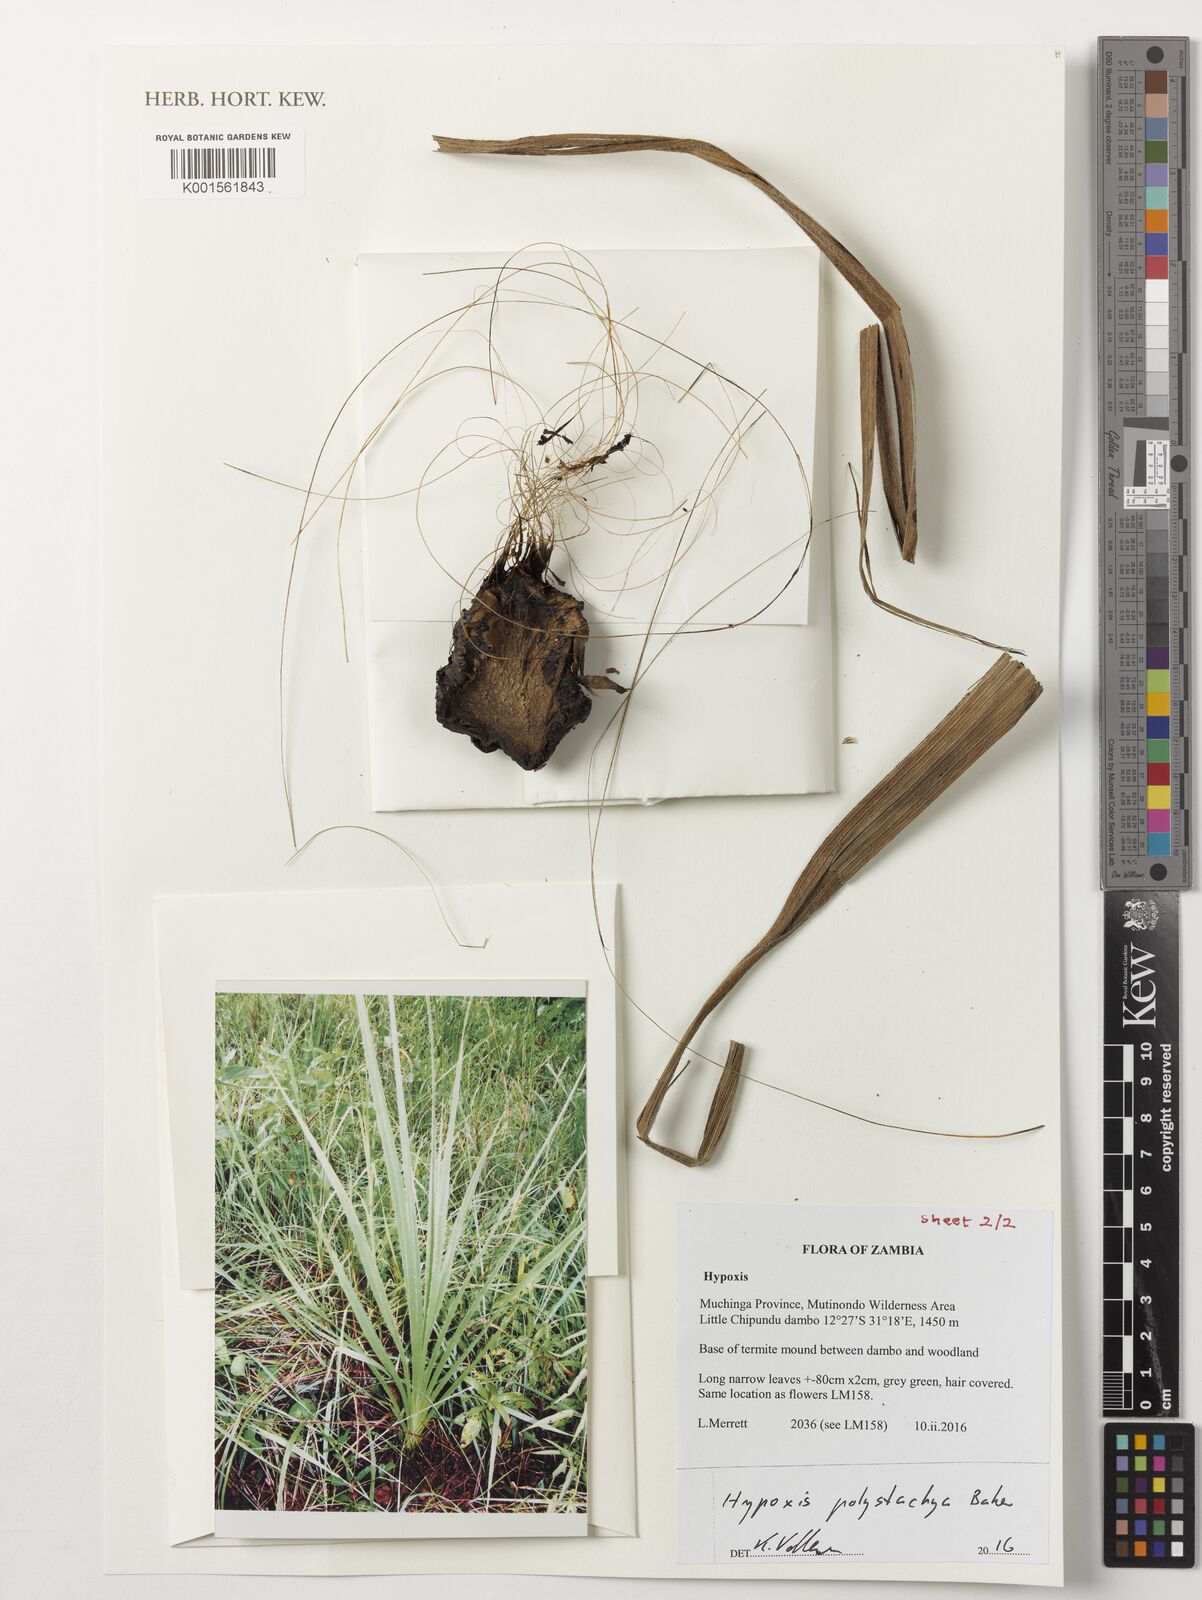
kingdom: Plantae
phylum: Tracheophyta
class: Liliopsida
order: Asparagales
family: Hypoxidaceae
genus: Hypoxis
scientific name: Hypoxis polystachya
